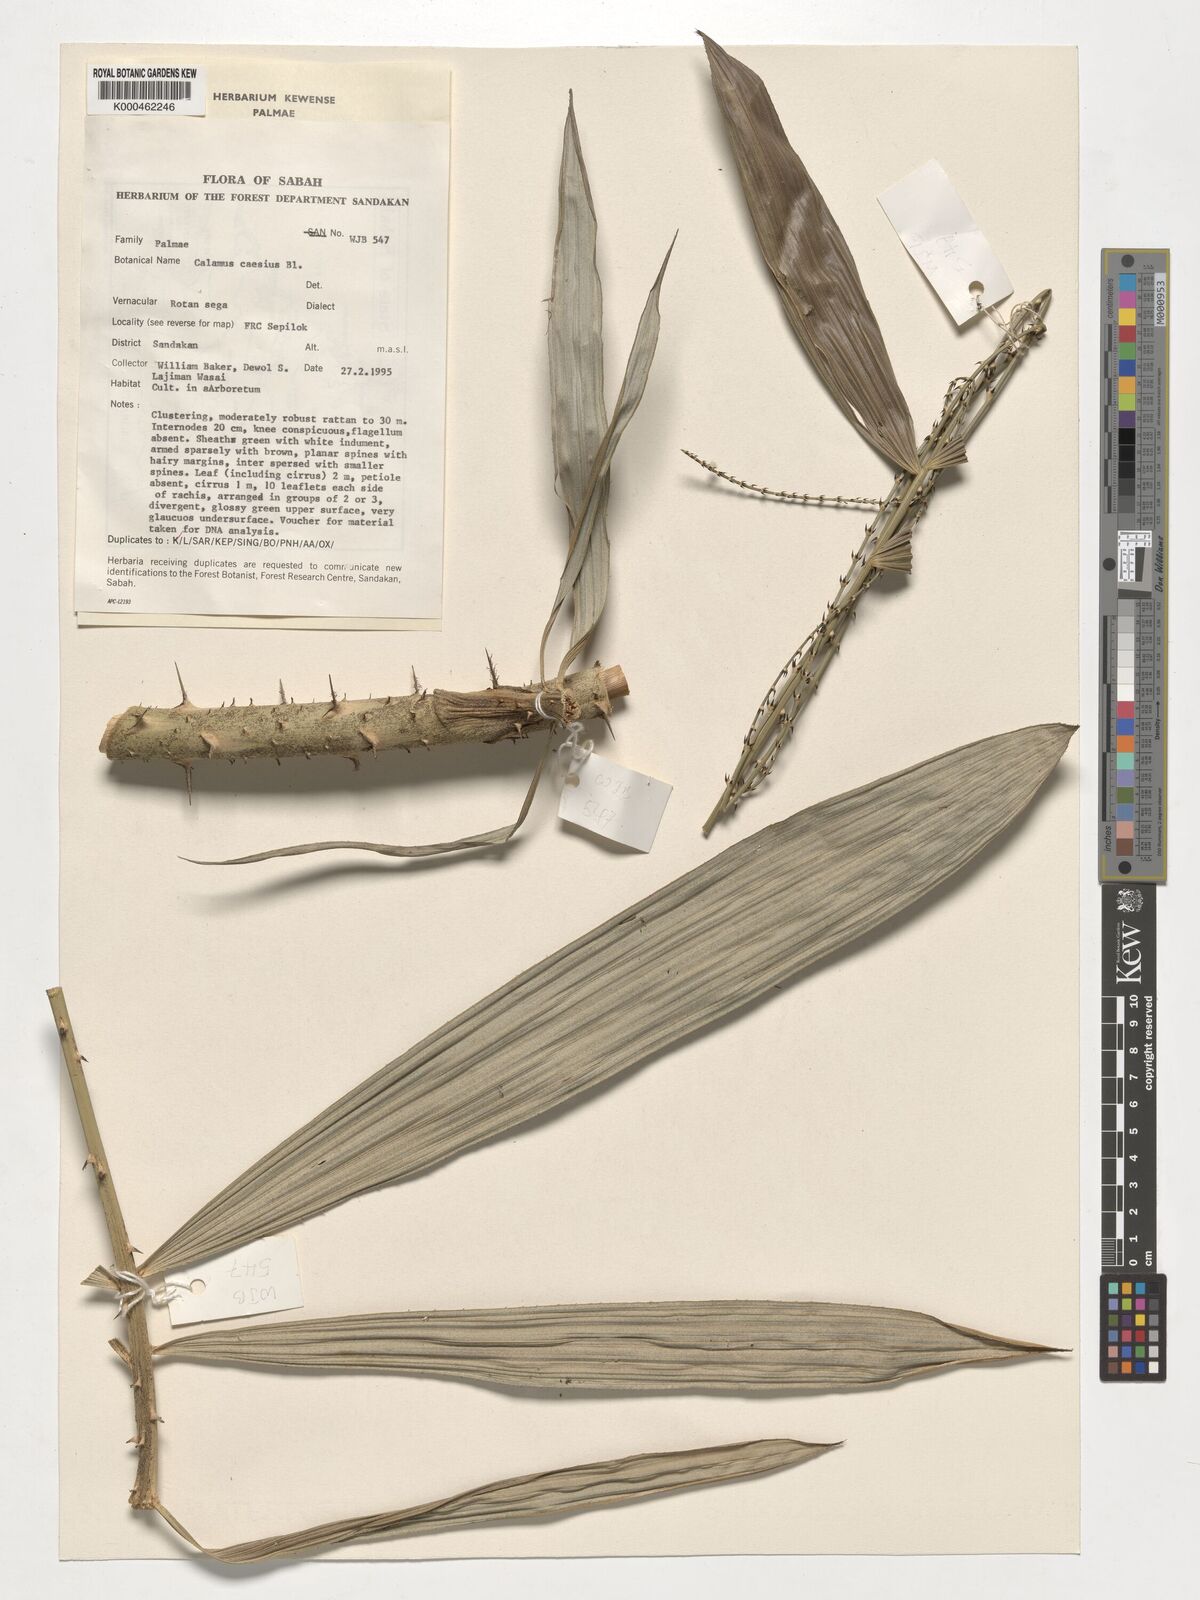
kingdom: Plantae
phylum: Tracheophyta
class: Liliopsida
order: Arecales
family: Arecaceae
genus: Calamus
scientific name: Calamus caesius
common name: Rattan palm
